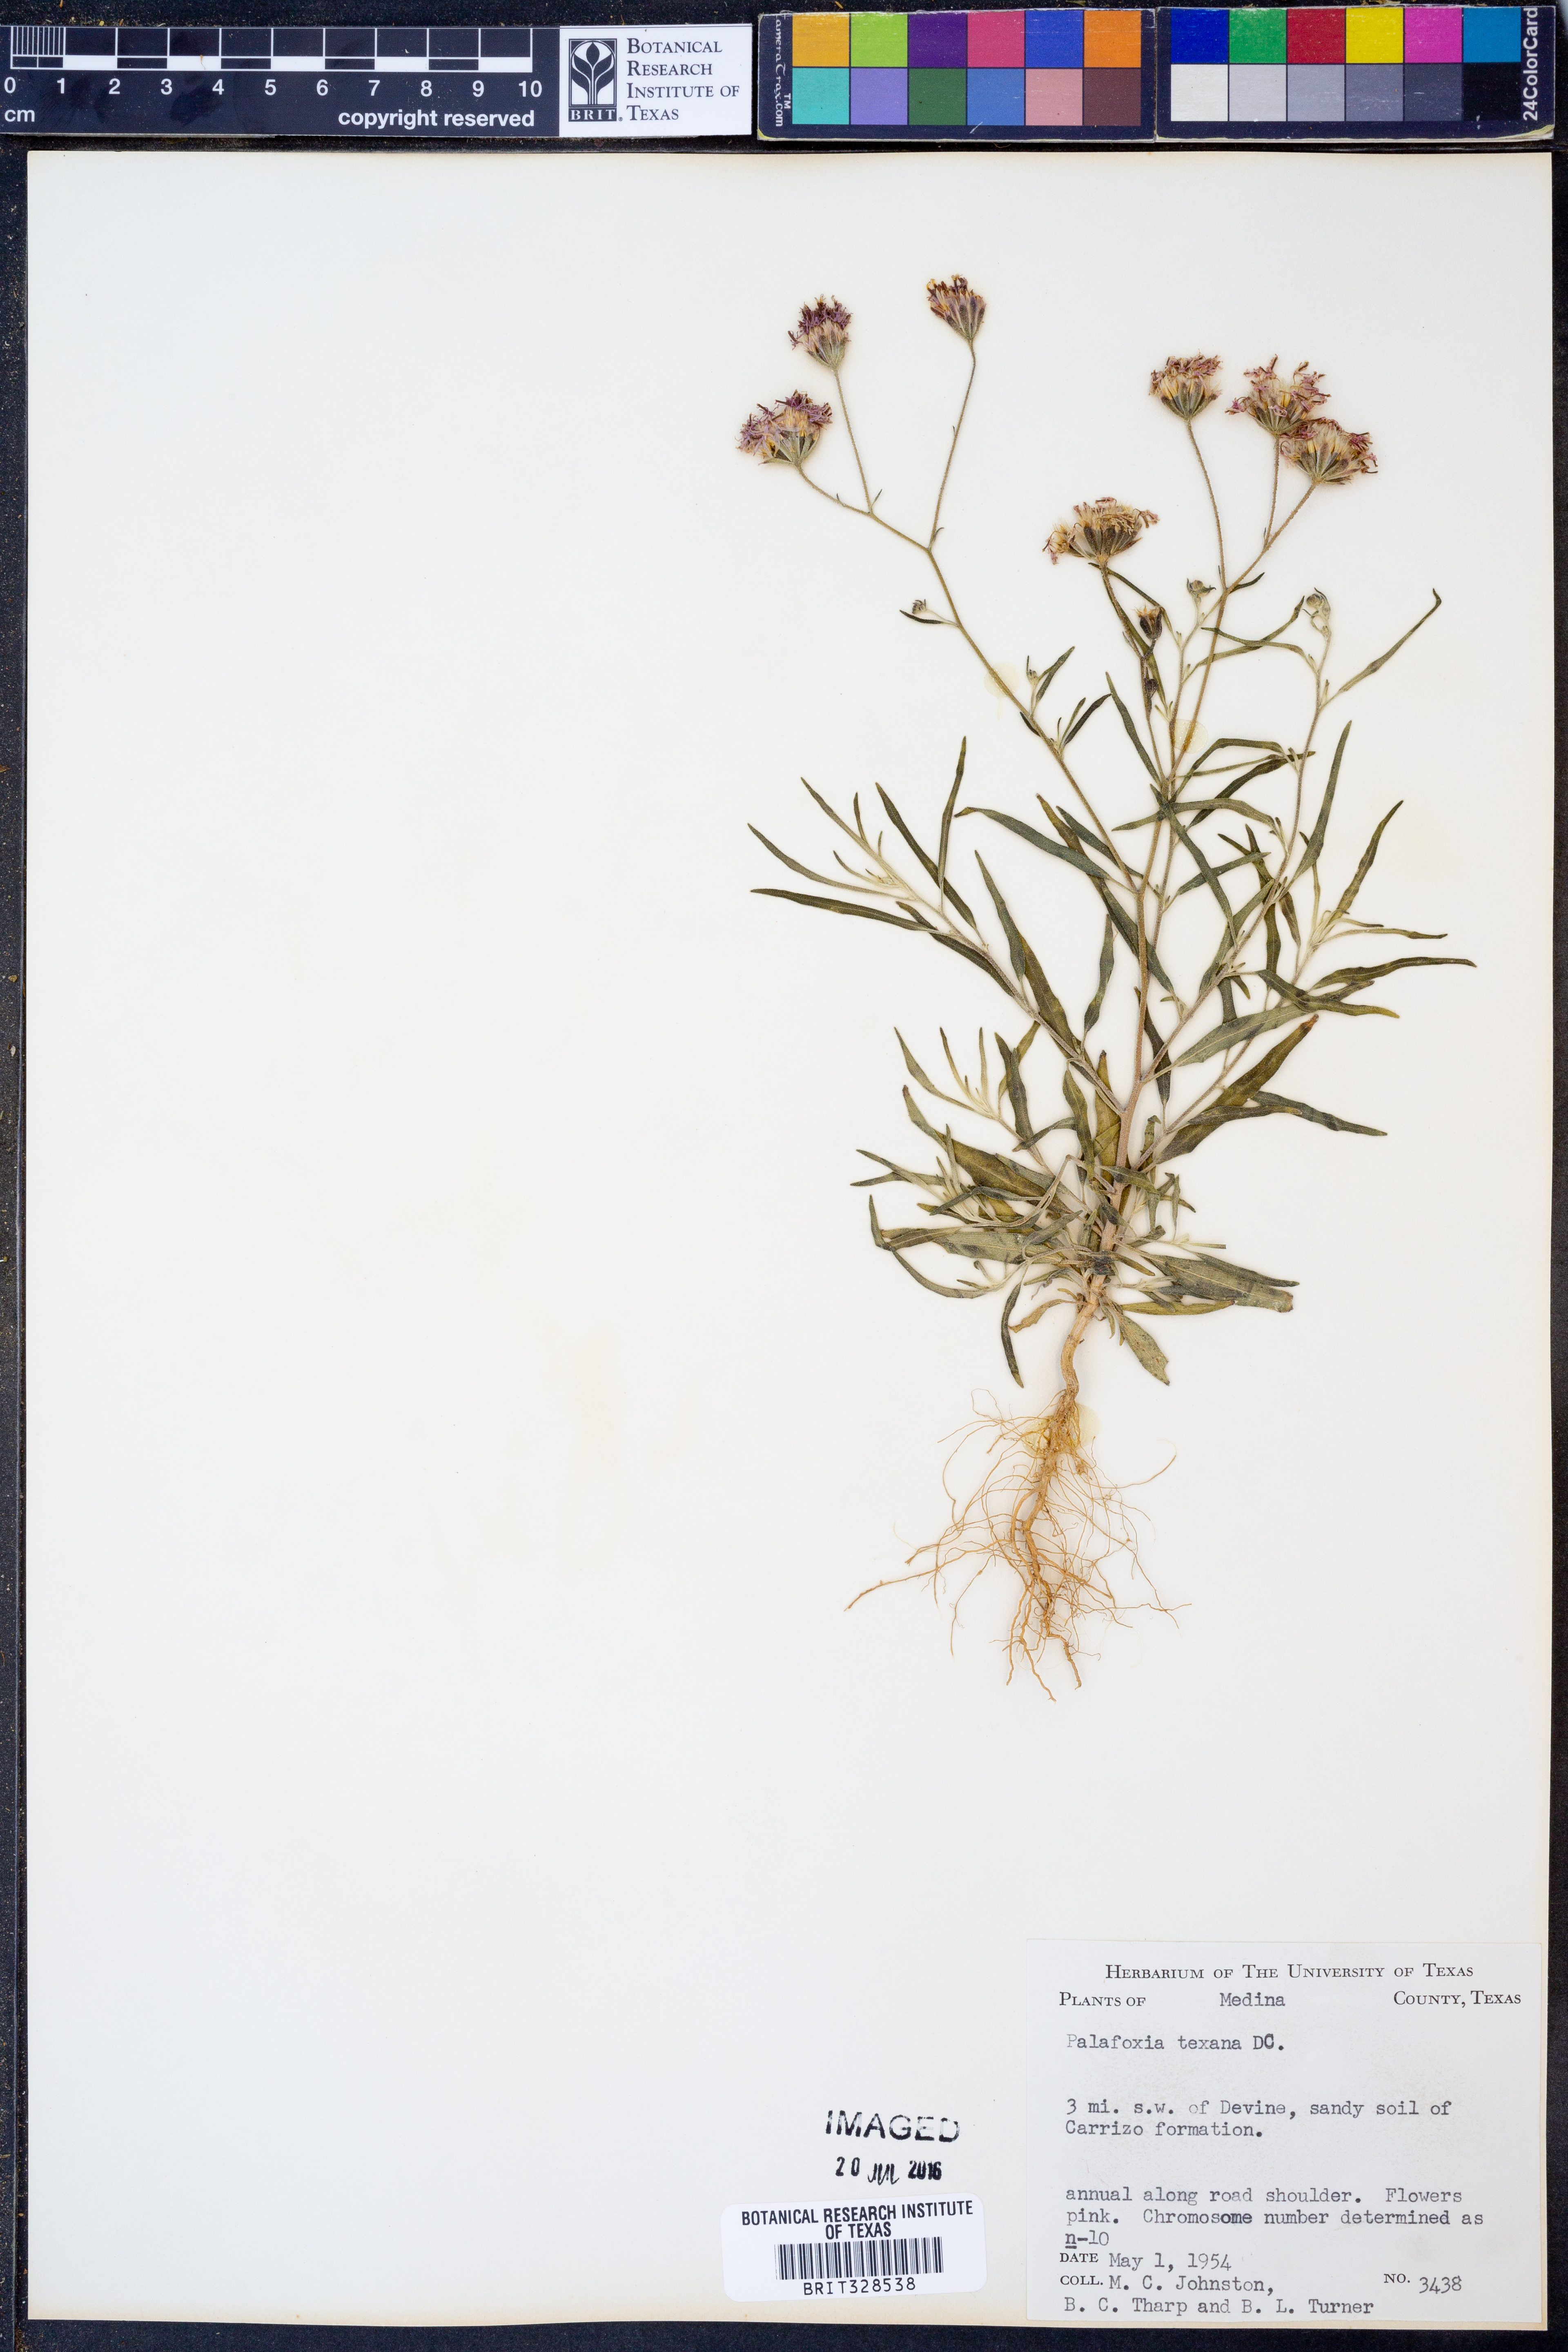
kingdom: Plantae
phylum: Tracheophyta
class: Magnoliopsida
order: Asterales
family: Asteraceae
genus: Palafoxia
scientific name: Palafoxia texana
